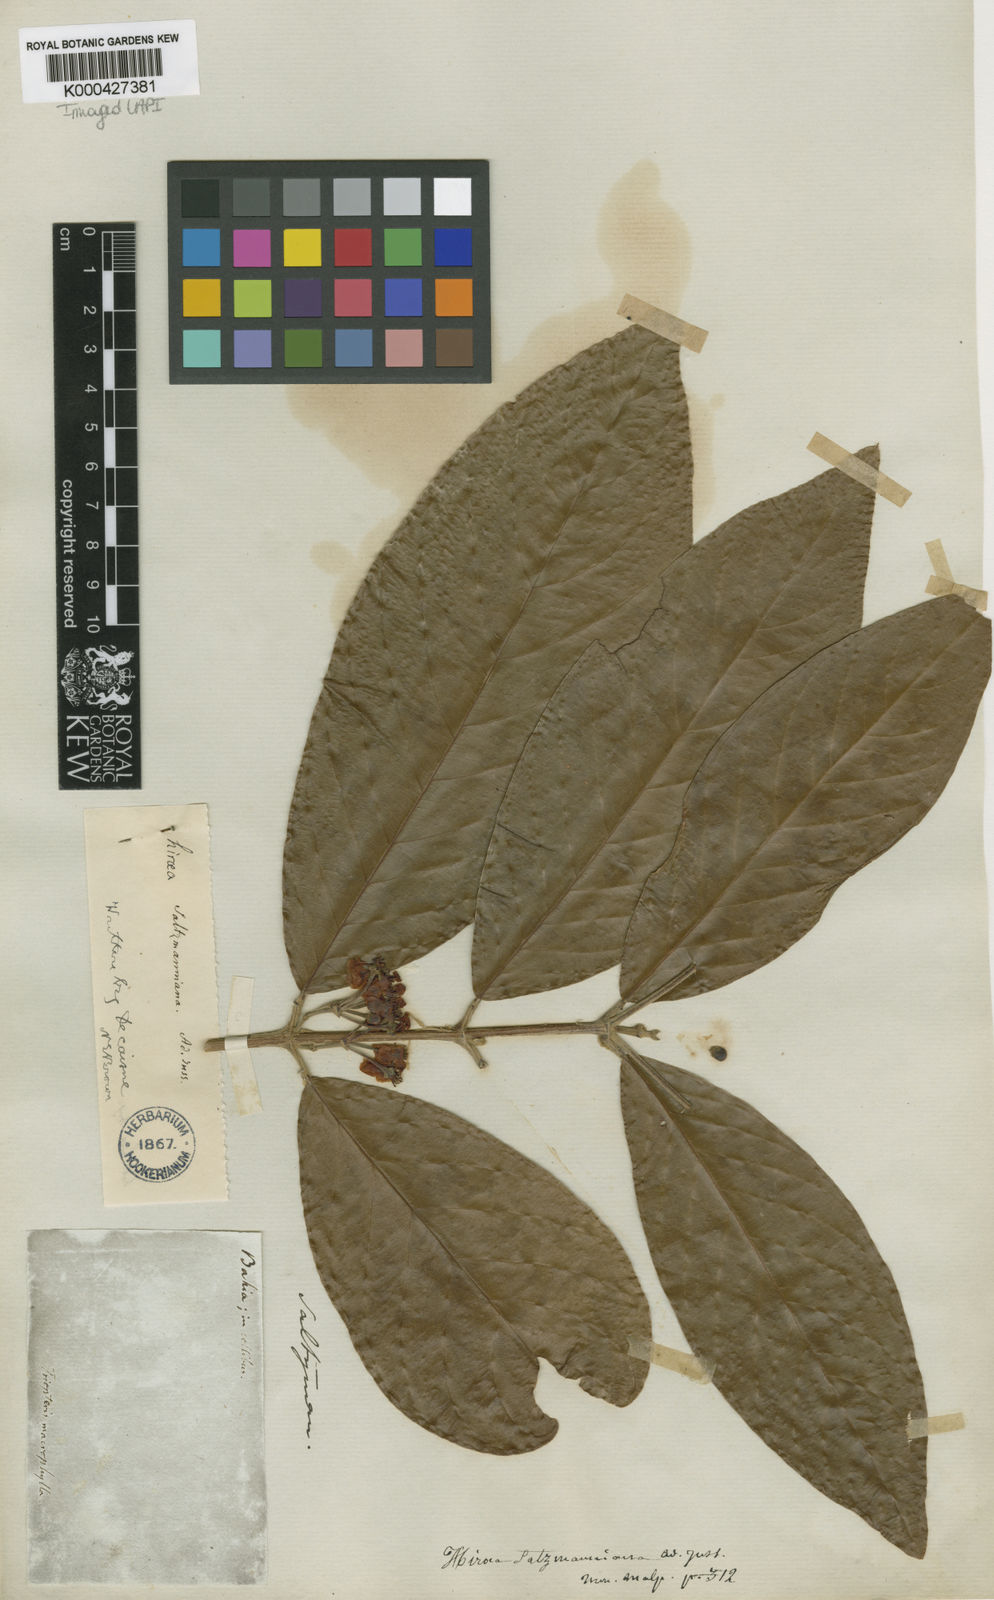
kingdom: Plantae
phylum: Tracheophyta
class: Magnoliopsida
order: Malpighiales
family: Malpighiaceae
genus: Hiraea
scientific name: Hiraea
